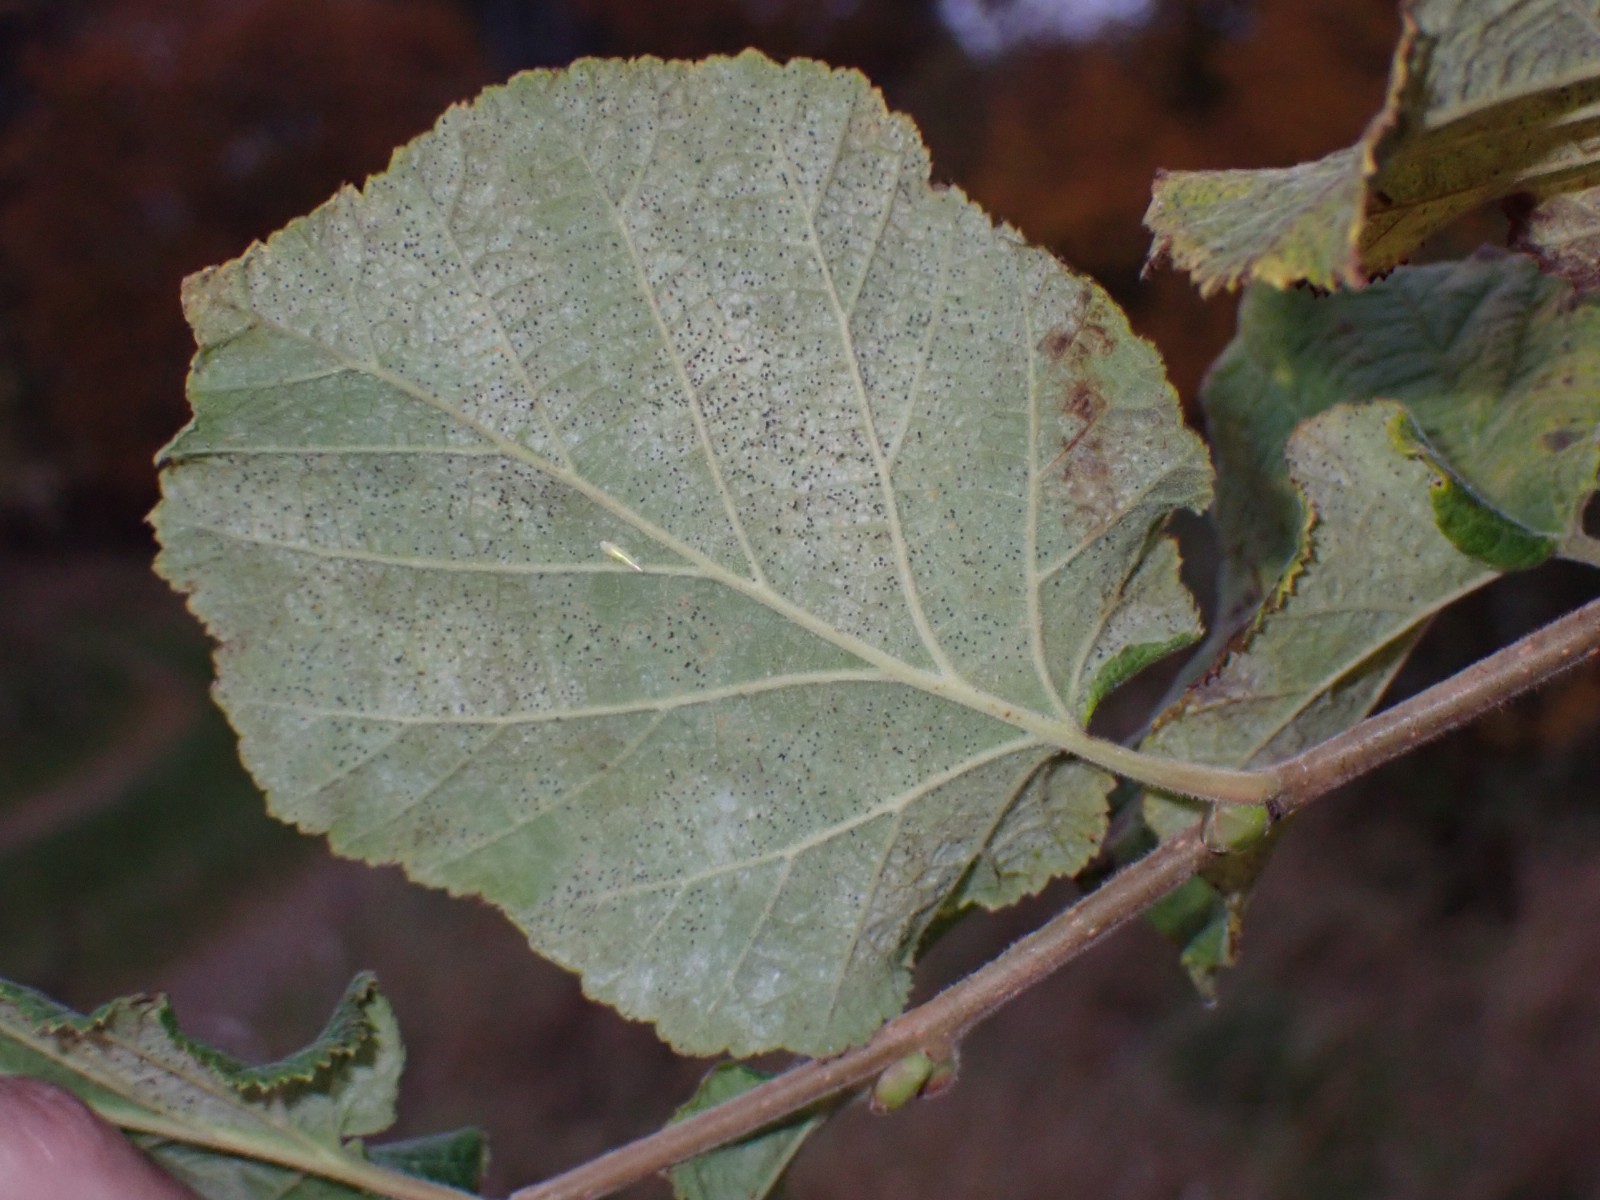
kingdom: Fungi
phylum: Ascomycota
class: Leotiomycetes
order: Helotiales
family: Erysiphaceae
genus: Phyllactinia
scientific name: Phyllactinia guttata
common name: hassel-meldug
